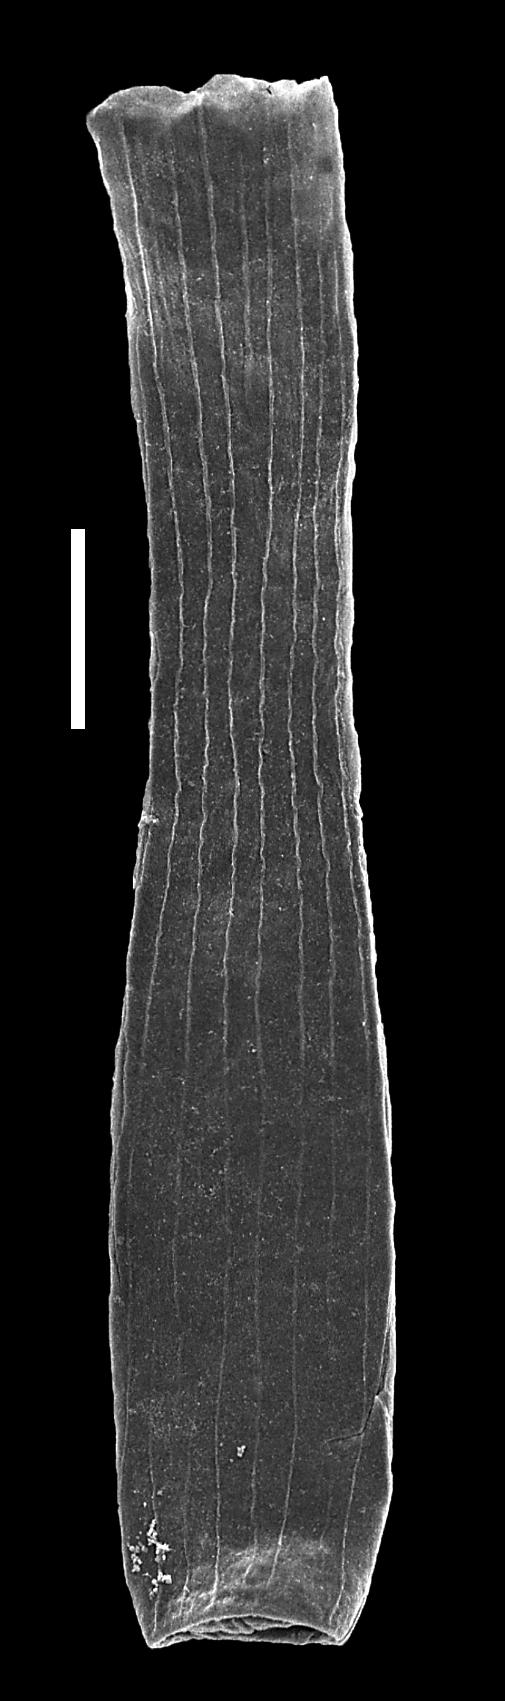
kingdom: Animalia
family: Conochitinidae
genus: Laufeldochitina
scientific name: Laufeldochitina
